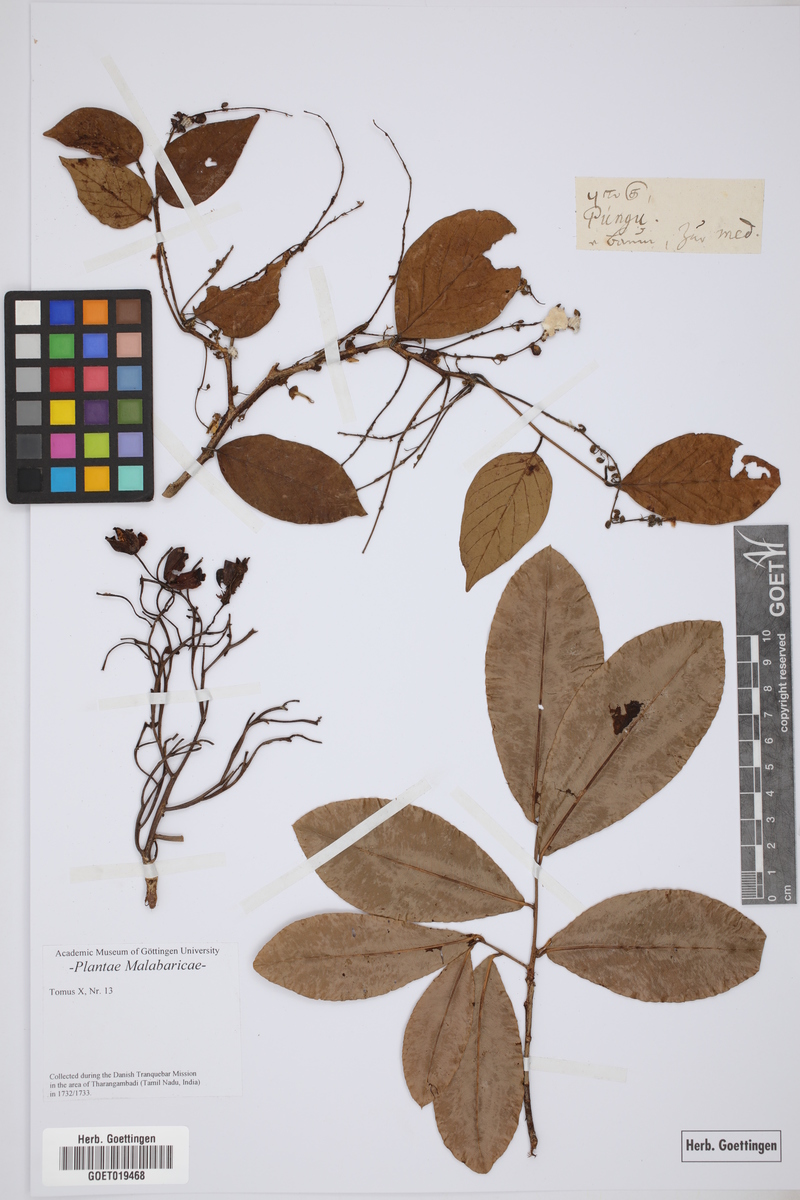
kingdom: Plantae
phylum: Tracheophyta
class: Magnoliopsida
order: Gentianales
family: Rubiaceae
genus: Hymenodictyon
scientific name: Hymenodictyon orixense
